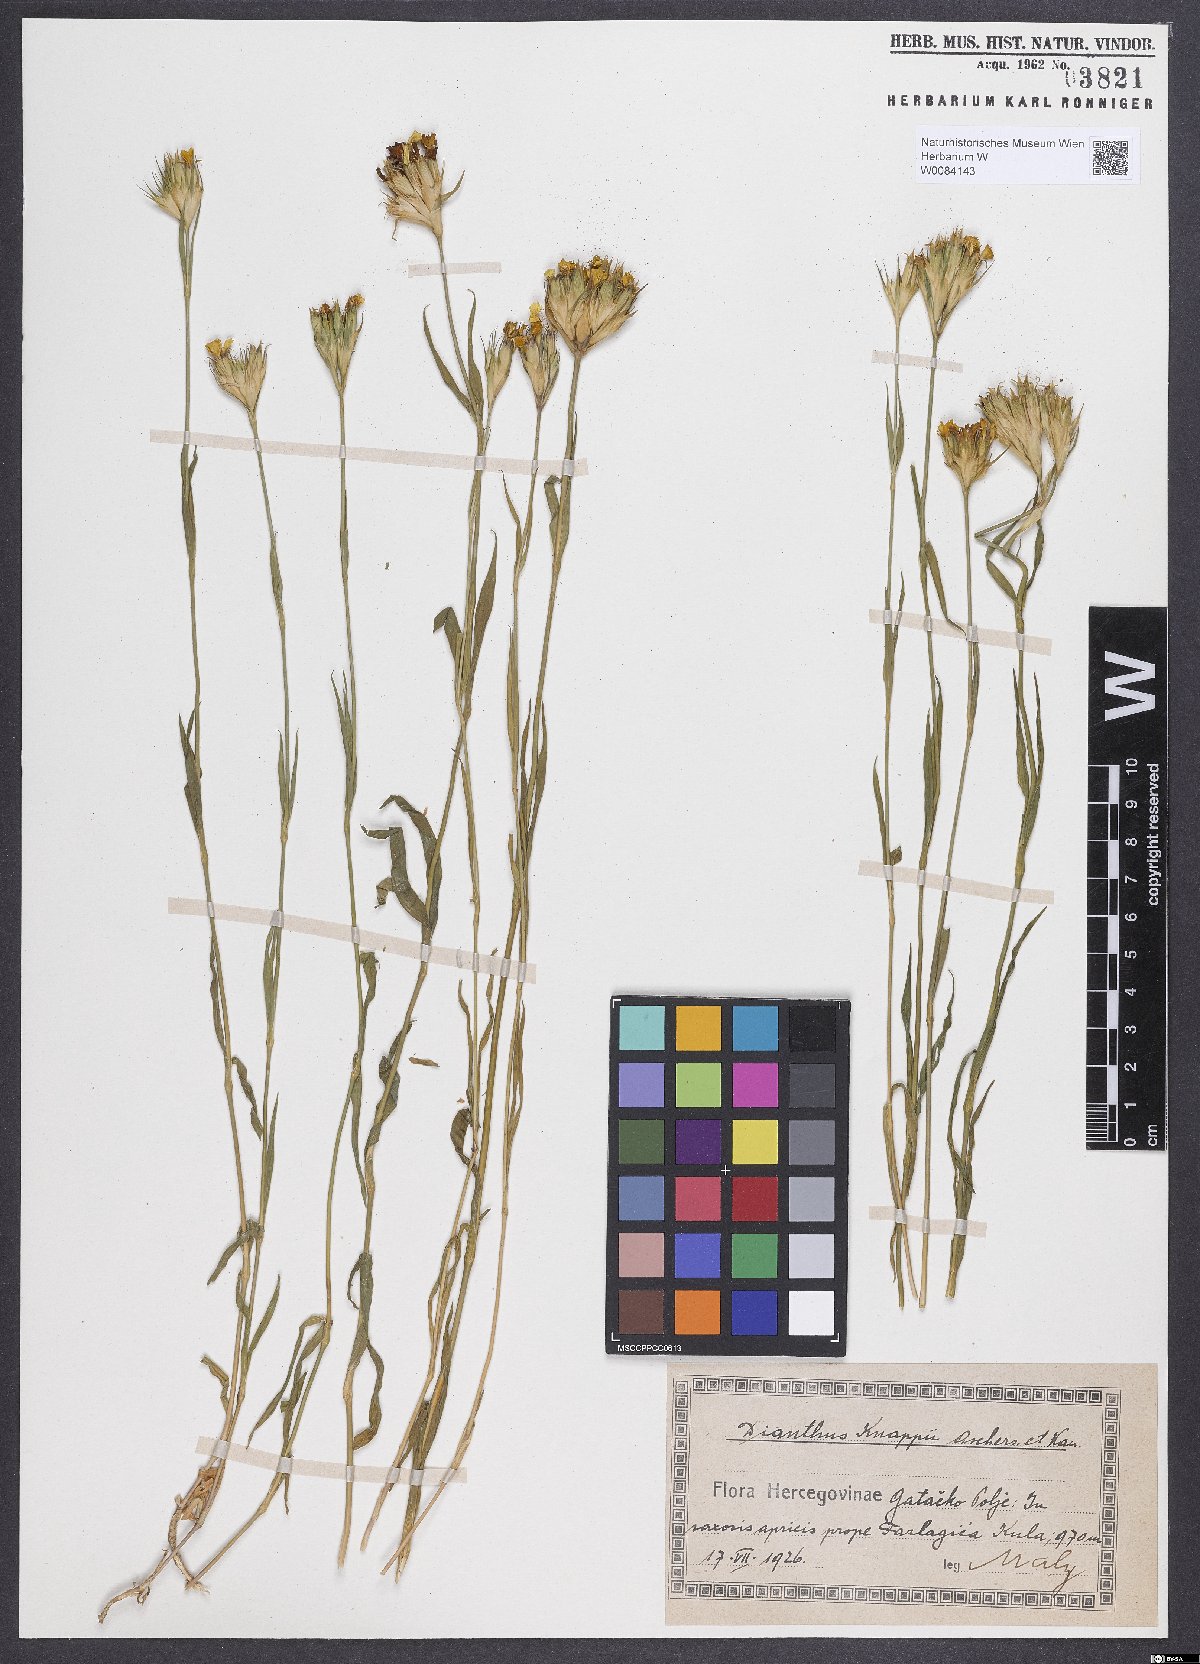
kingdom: Plantae
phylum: Tracheophyta
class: Magnoliopsida
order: Caryophyllales
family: Caryophyllaceae
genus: Dianthus
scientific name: Dianthus balbisii
